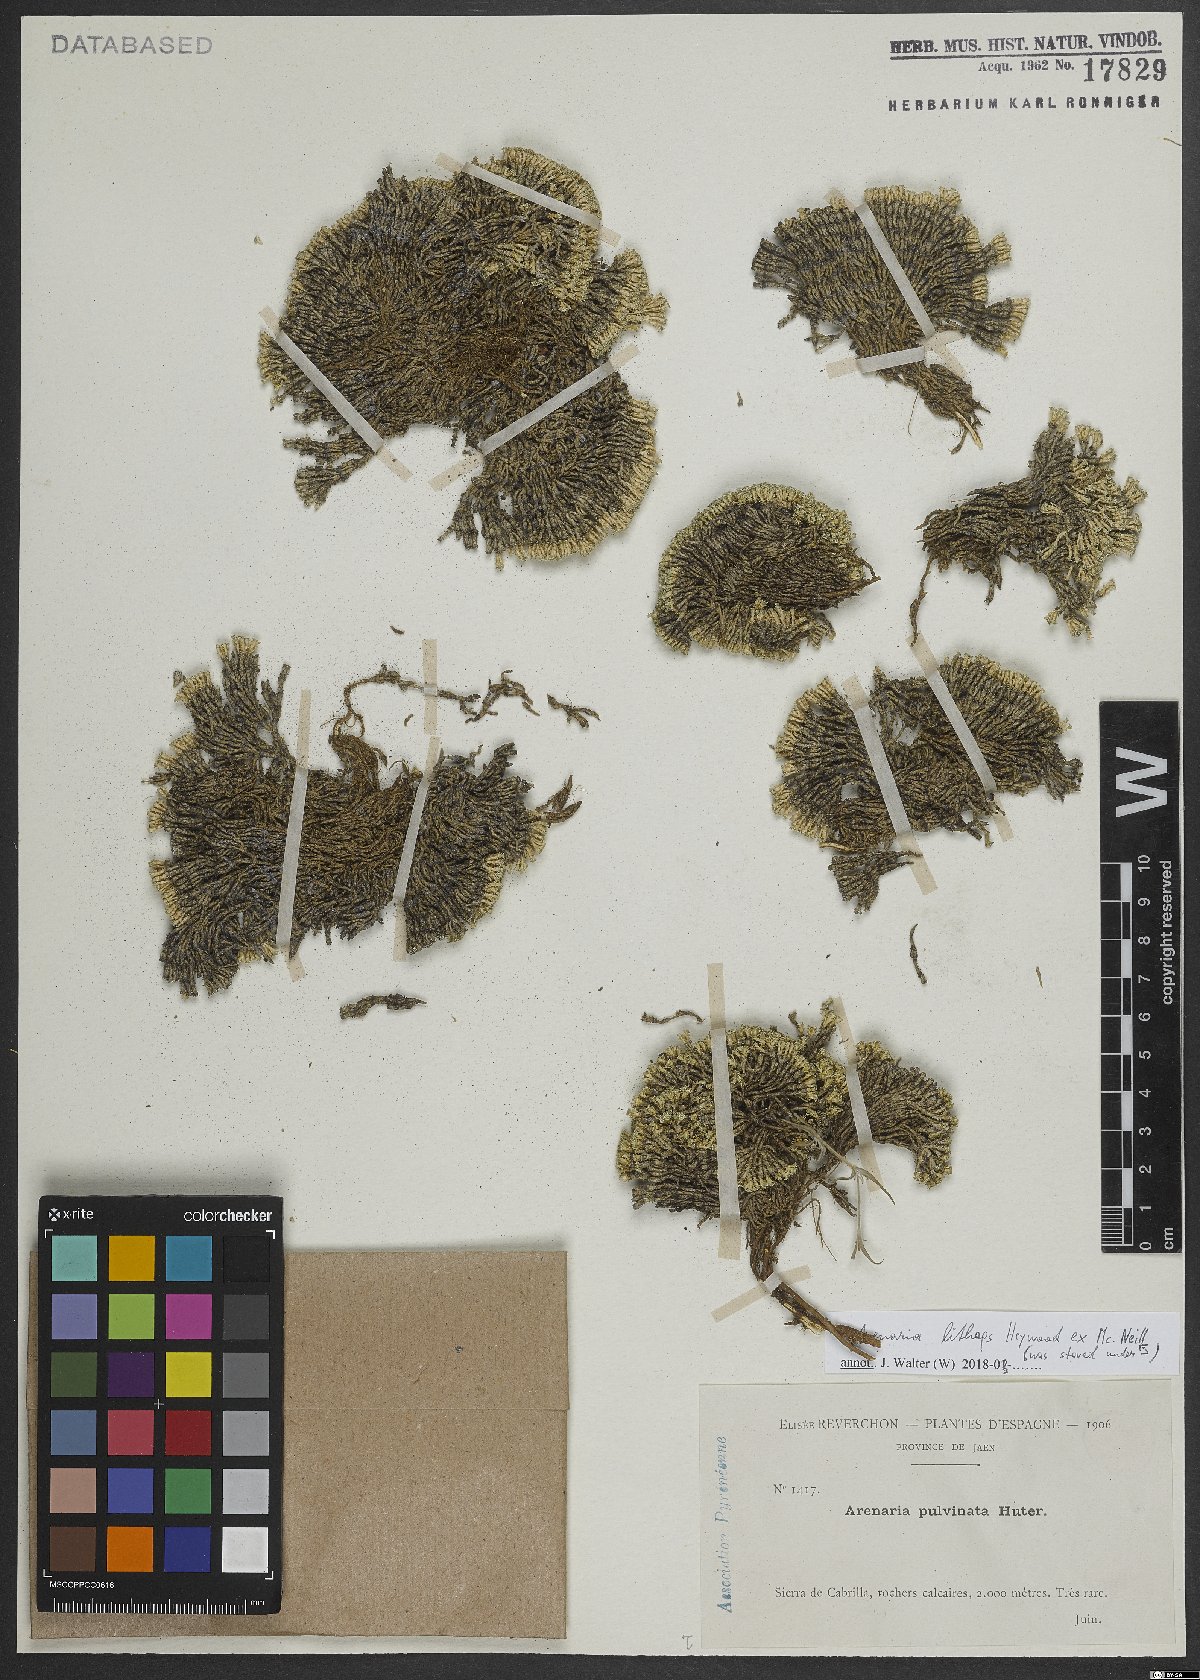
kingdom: Plantae
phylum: Tracheophyta
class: Magnoliopsida
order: Caryophyllales
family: Caryophyllaceae
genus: Arenaria
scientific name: Arenaria alfacarensis
